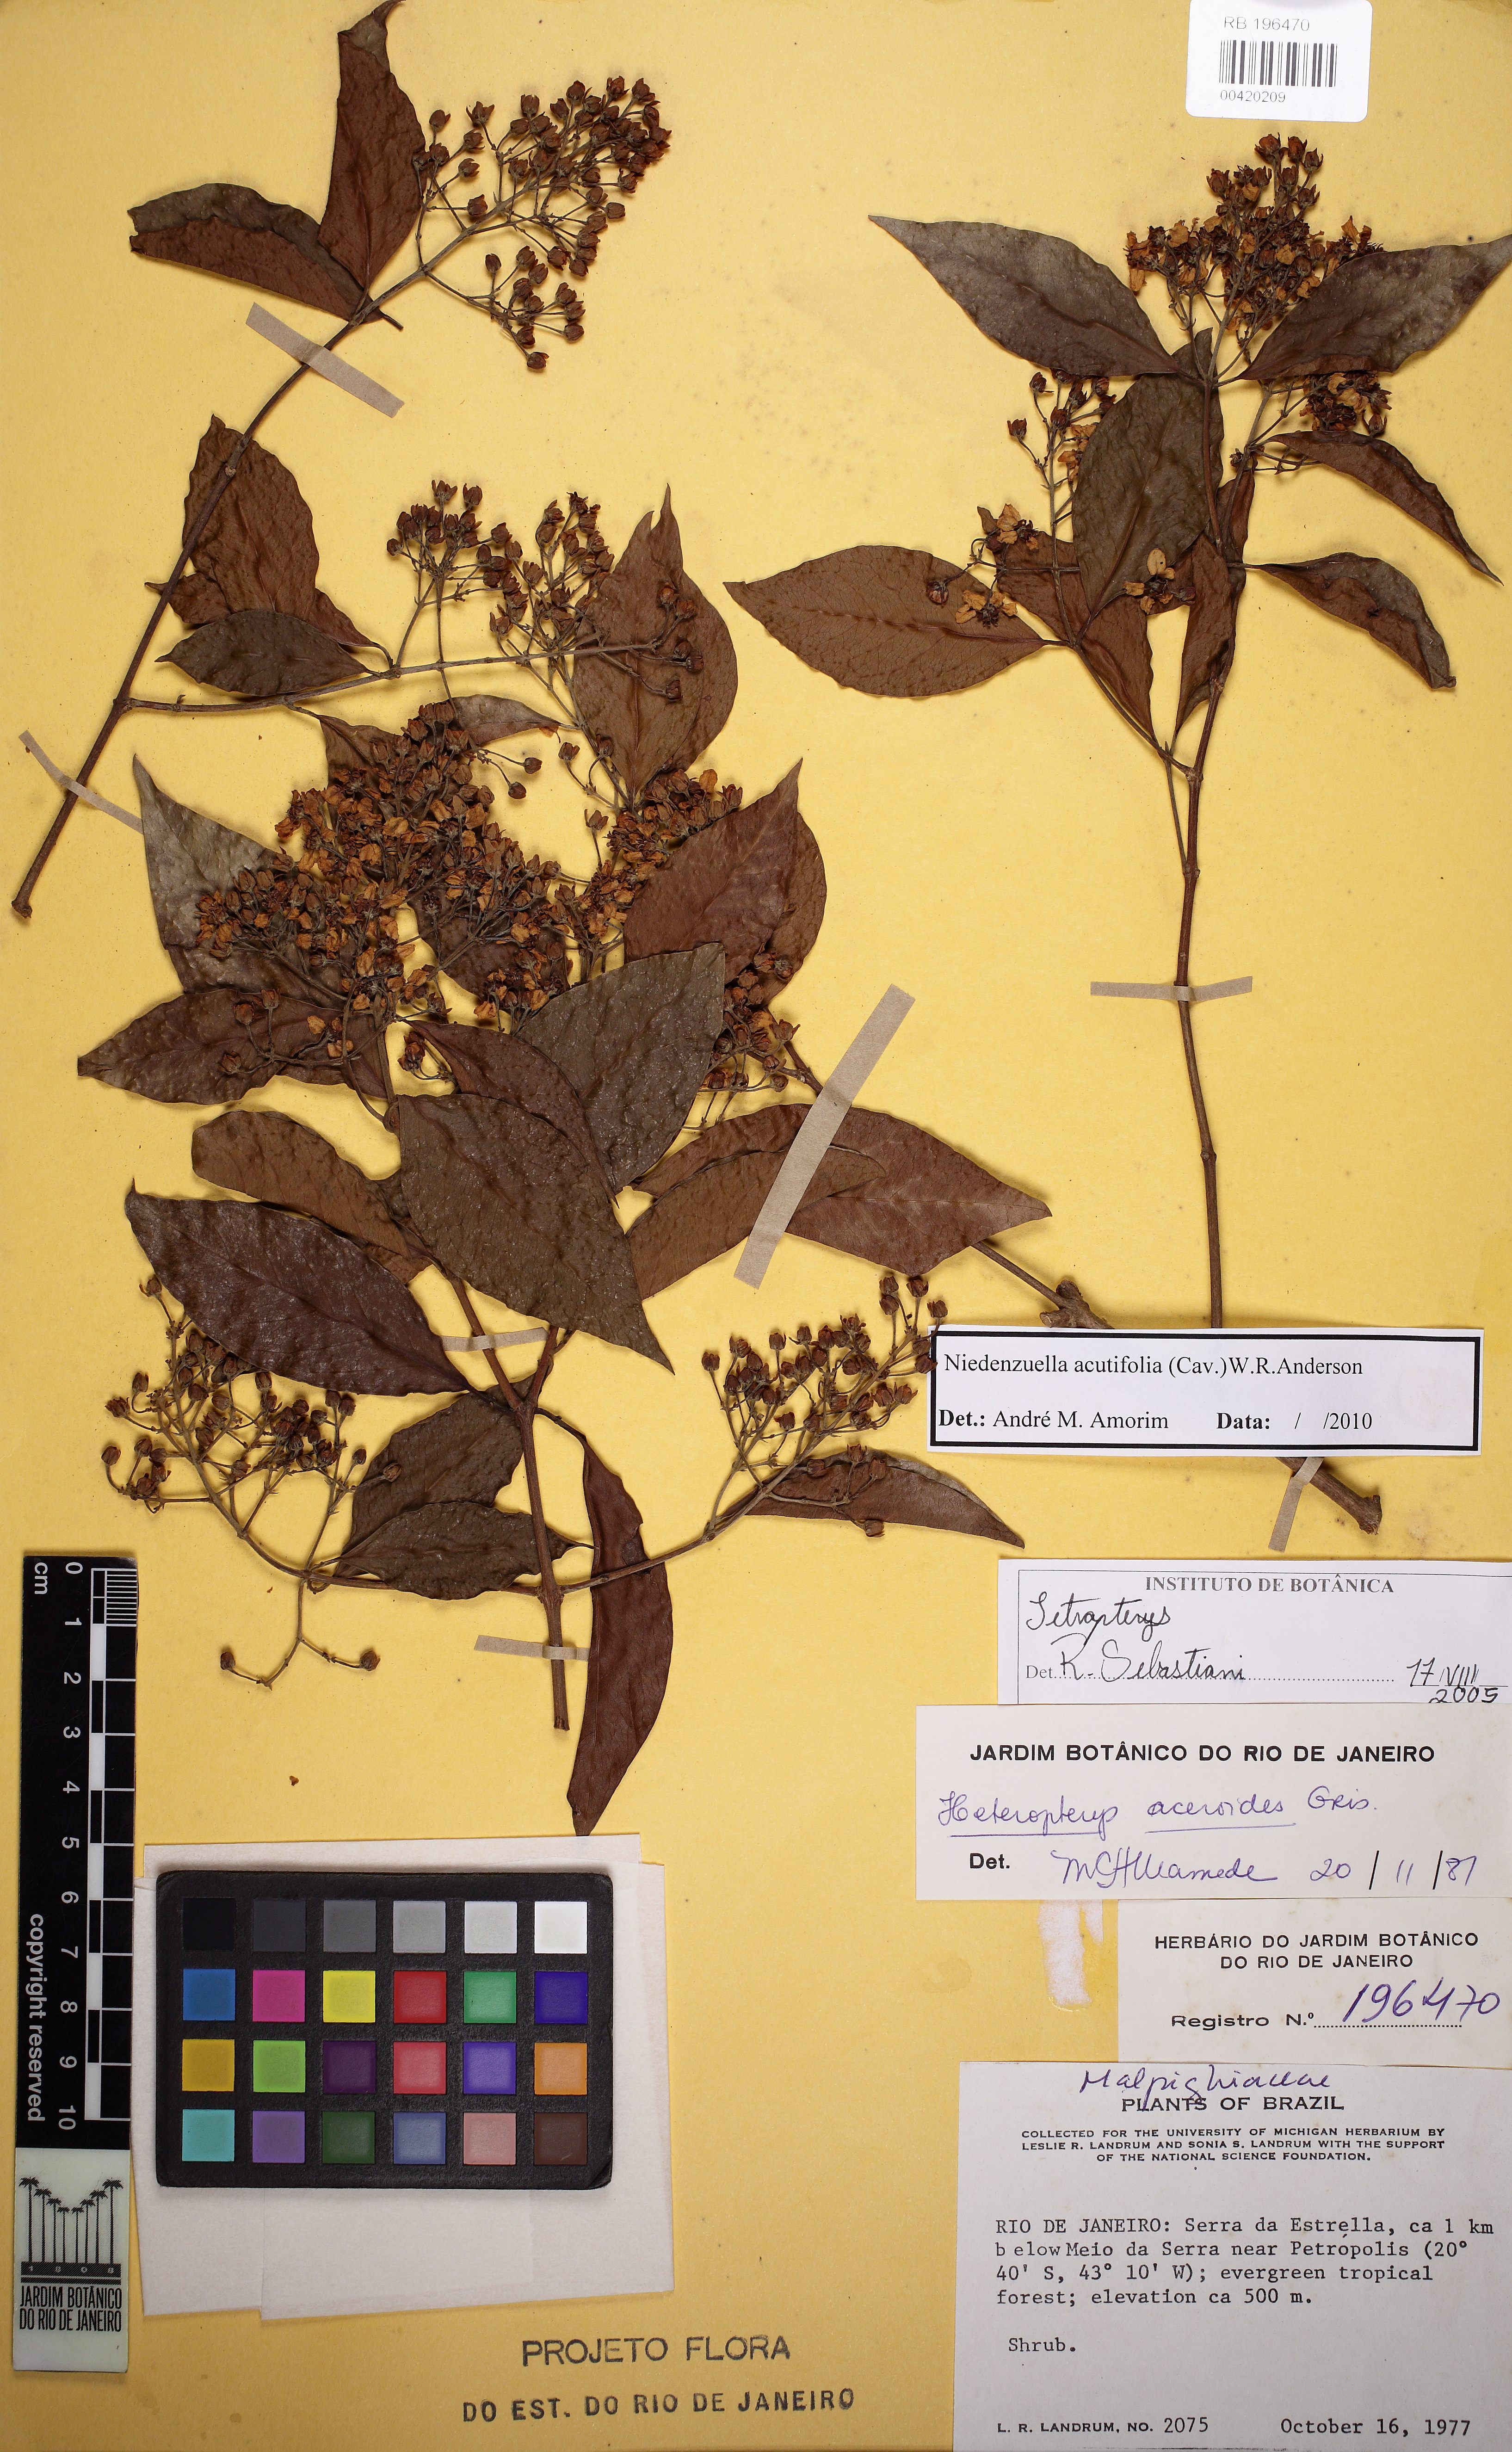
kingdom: Plantae
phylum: Tracheophyta
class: Magnoliopsida
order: Malpighiales
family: Malpighiaceae
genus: Niedenzuella
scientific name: Niedenzuella acutifolia
